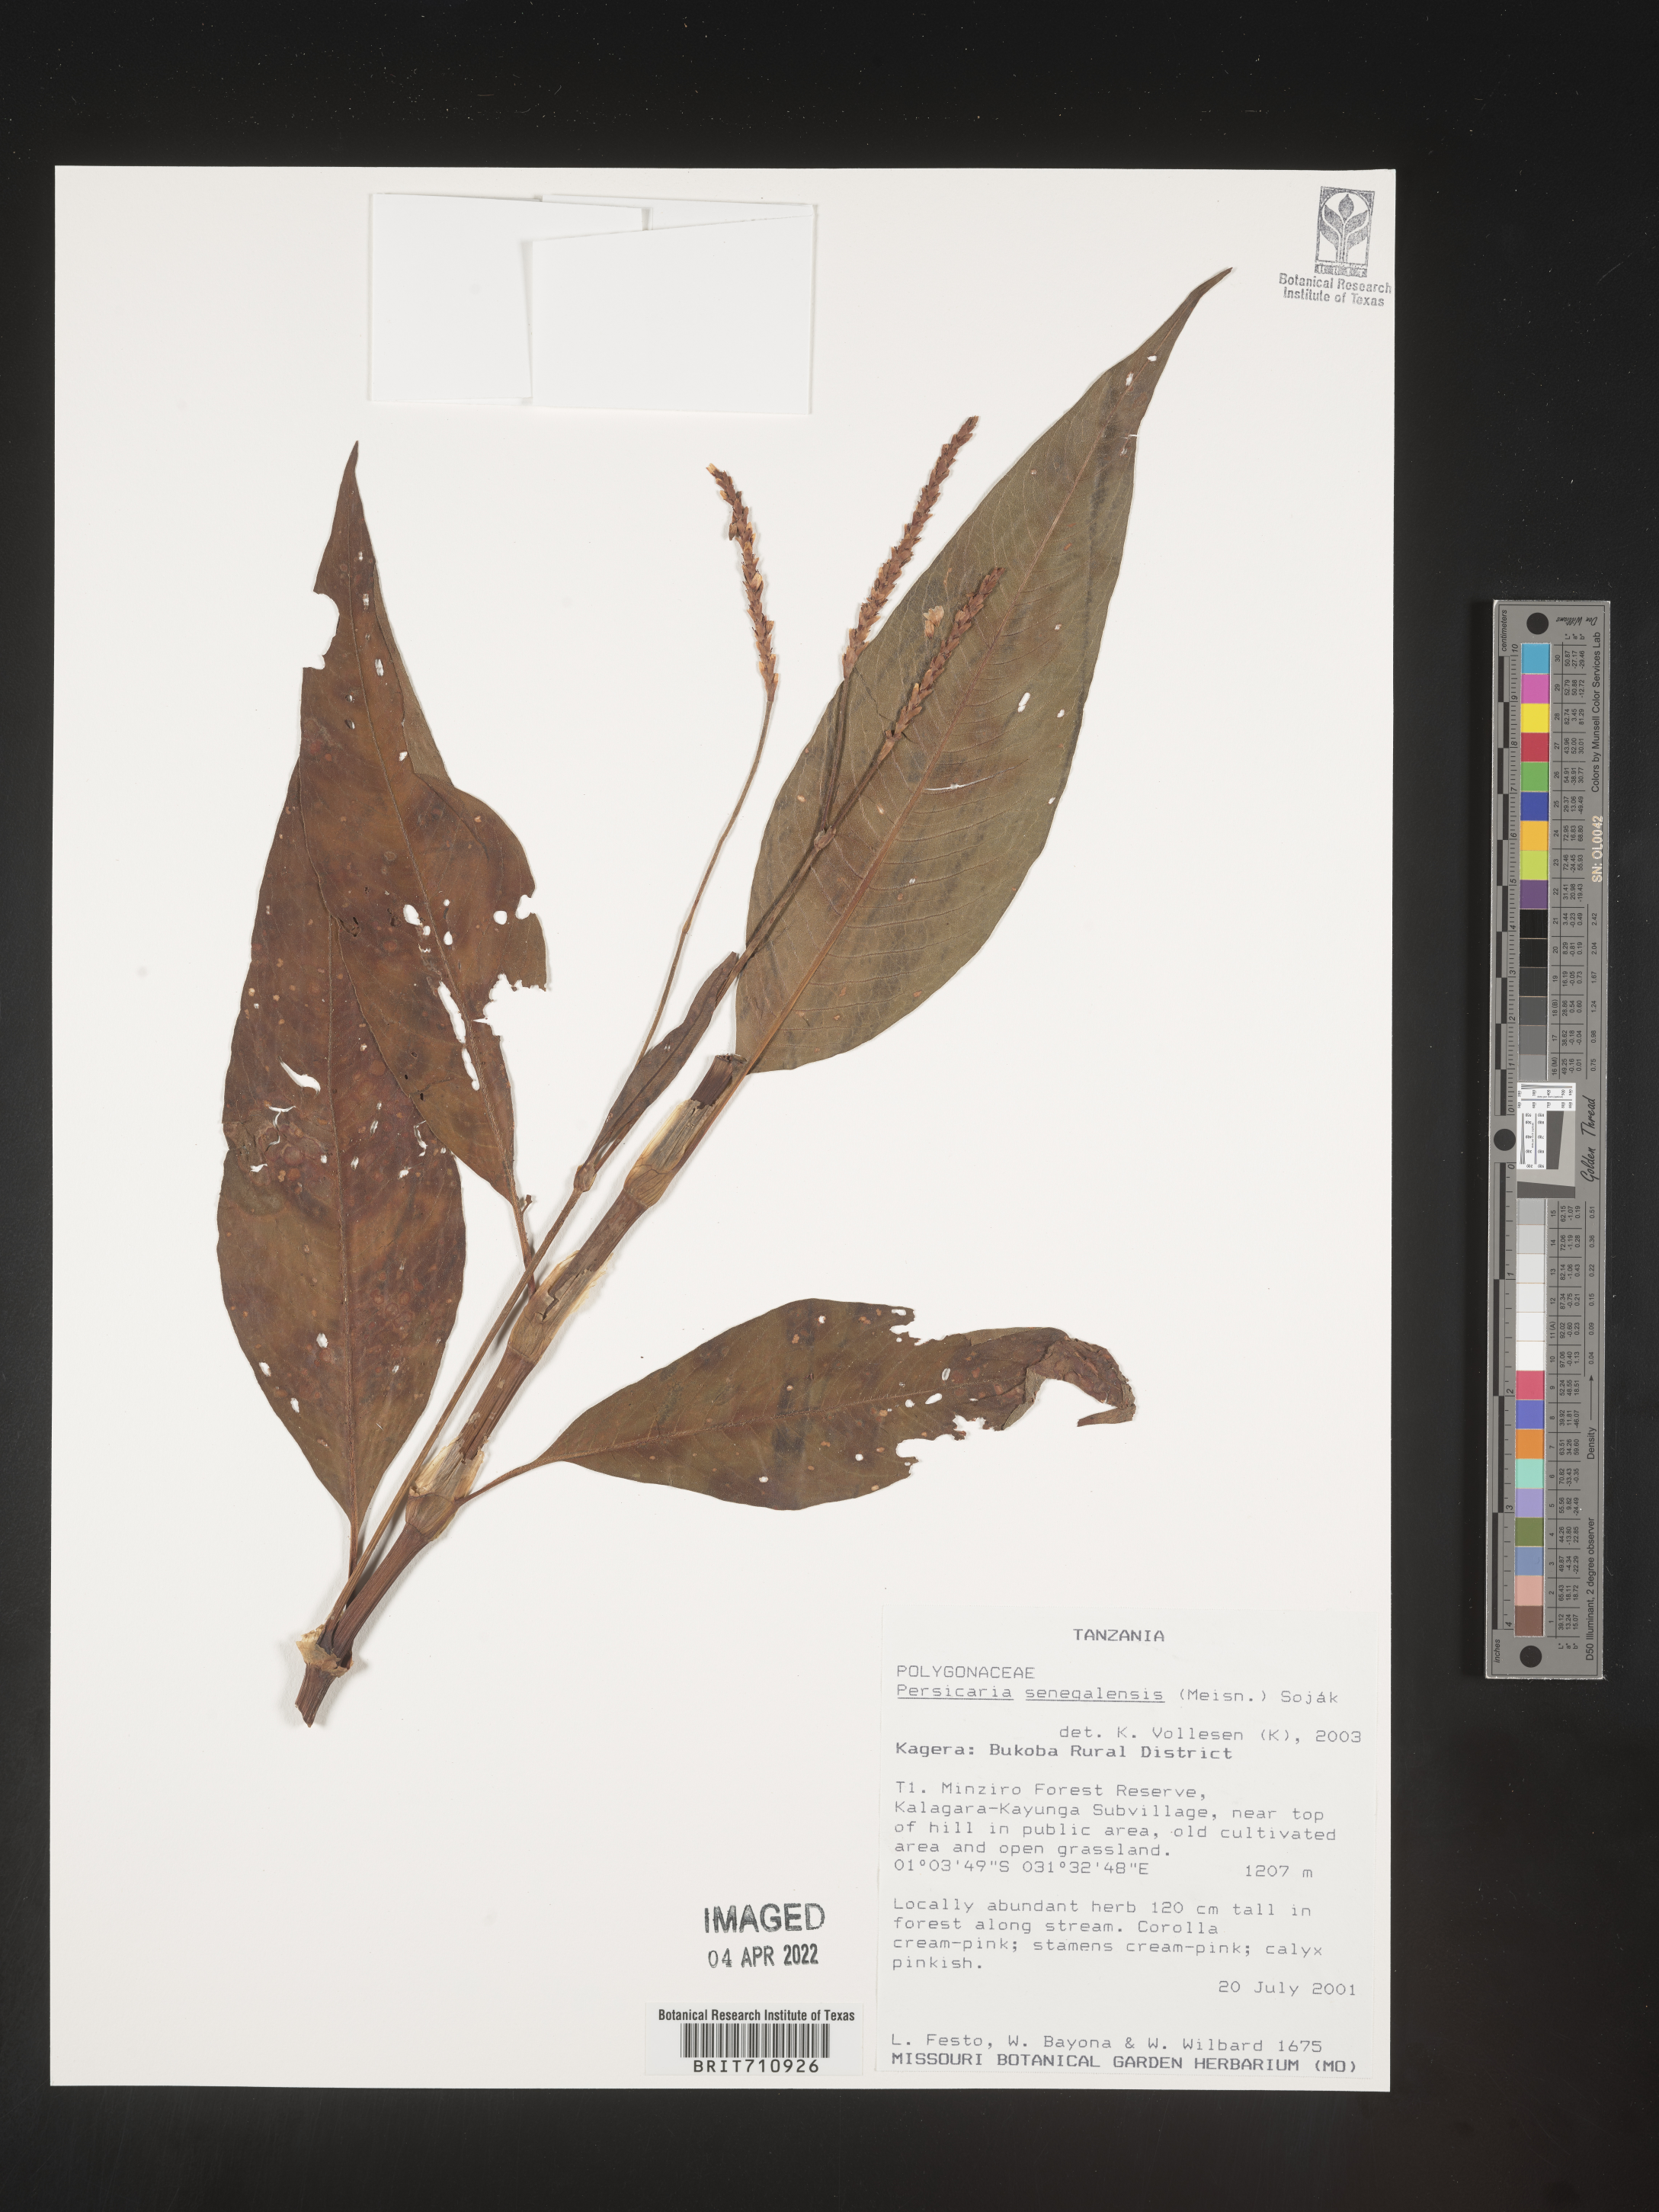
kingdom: Plantae
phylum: Tracheophyta
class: Magnoliopsida
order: Caryophyllales
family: Polygonaceae
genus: Persicaria
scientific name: Persicaria
